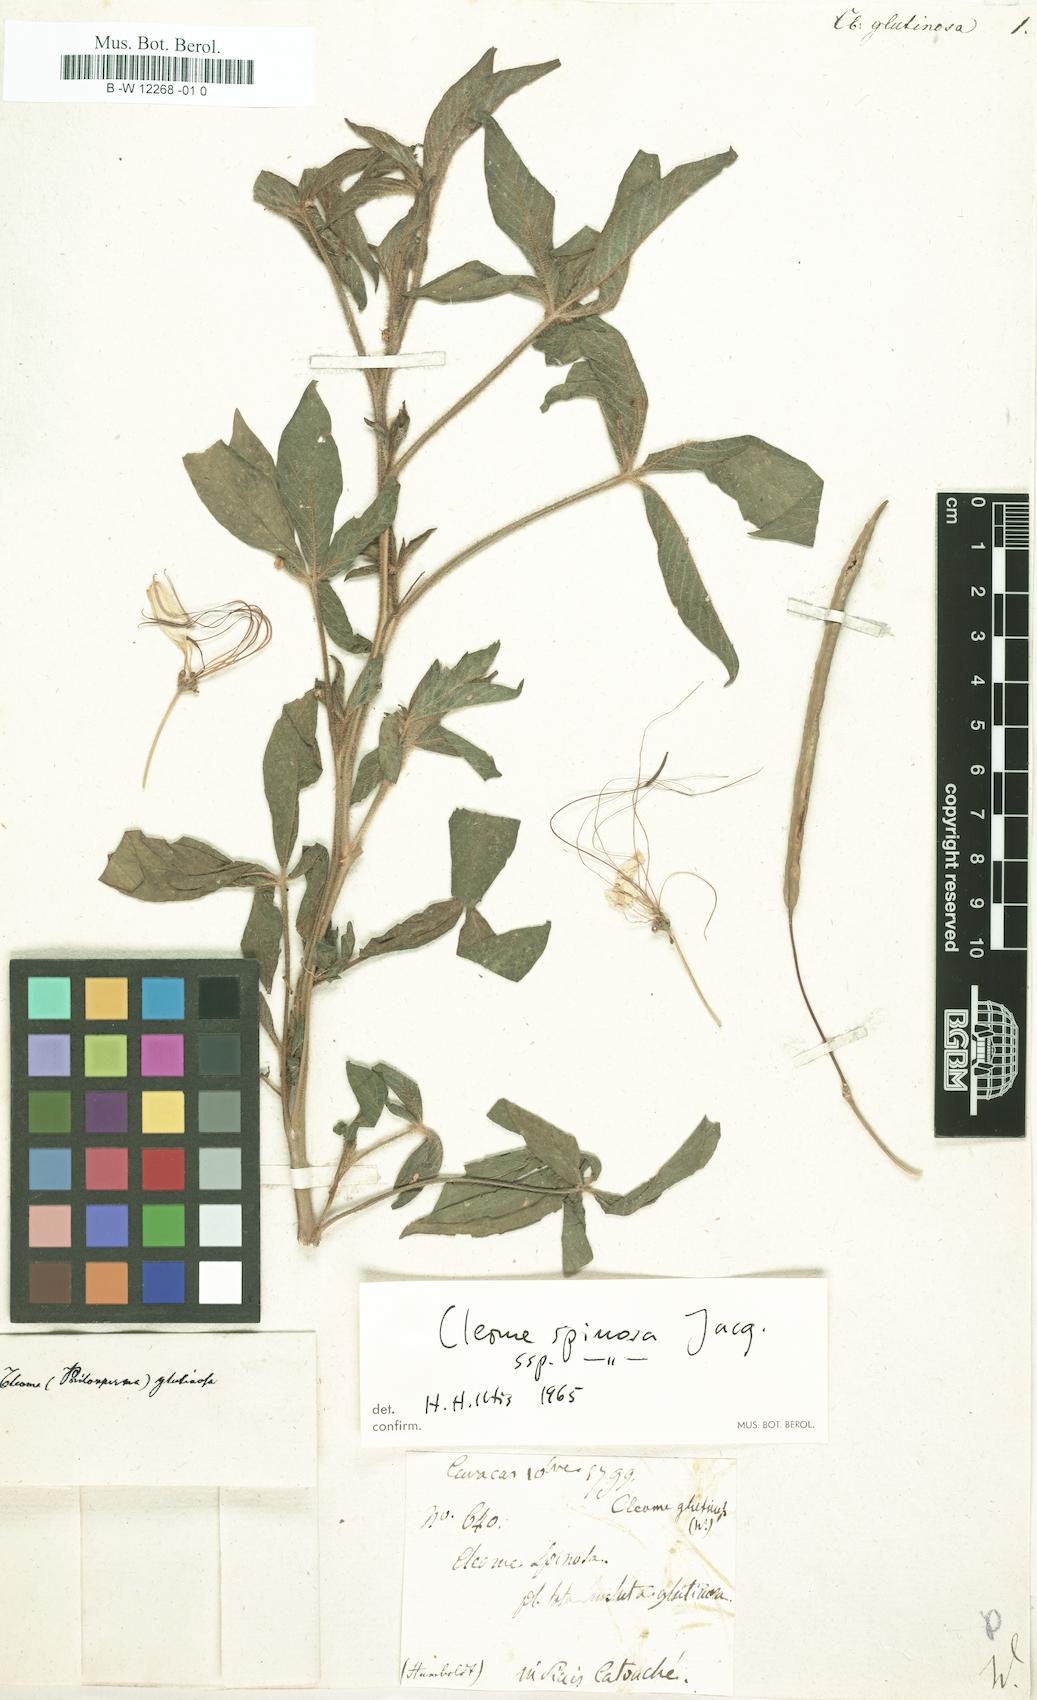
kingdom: Plantae
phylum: Tracheophyta
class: Magnoliopsida
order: Brassicales
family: Cleomaceae
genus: Cleome
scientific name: Cleome glutinosa
